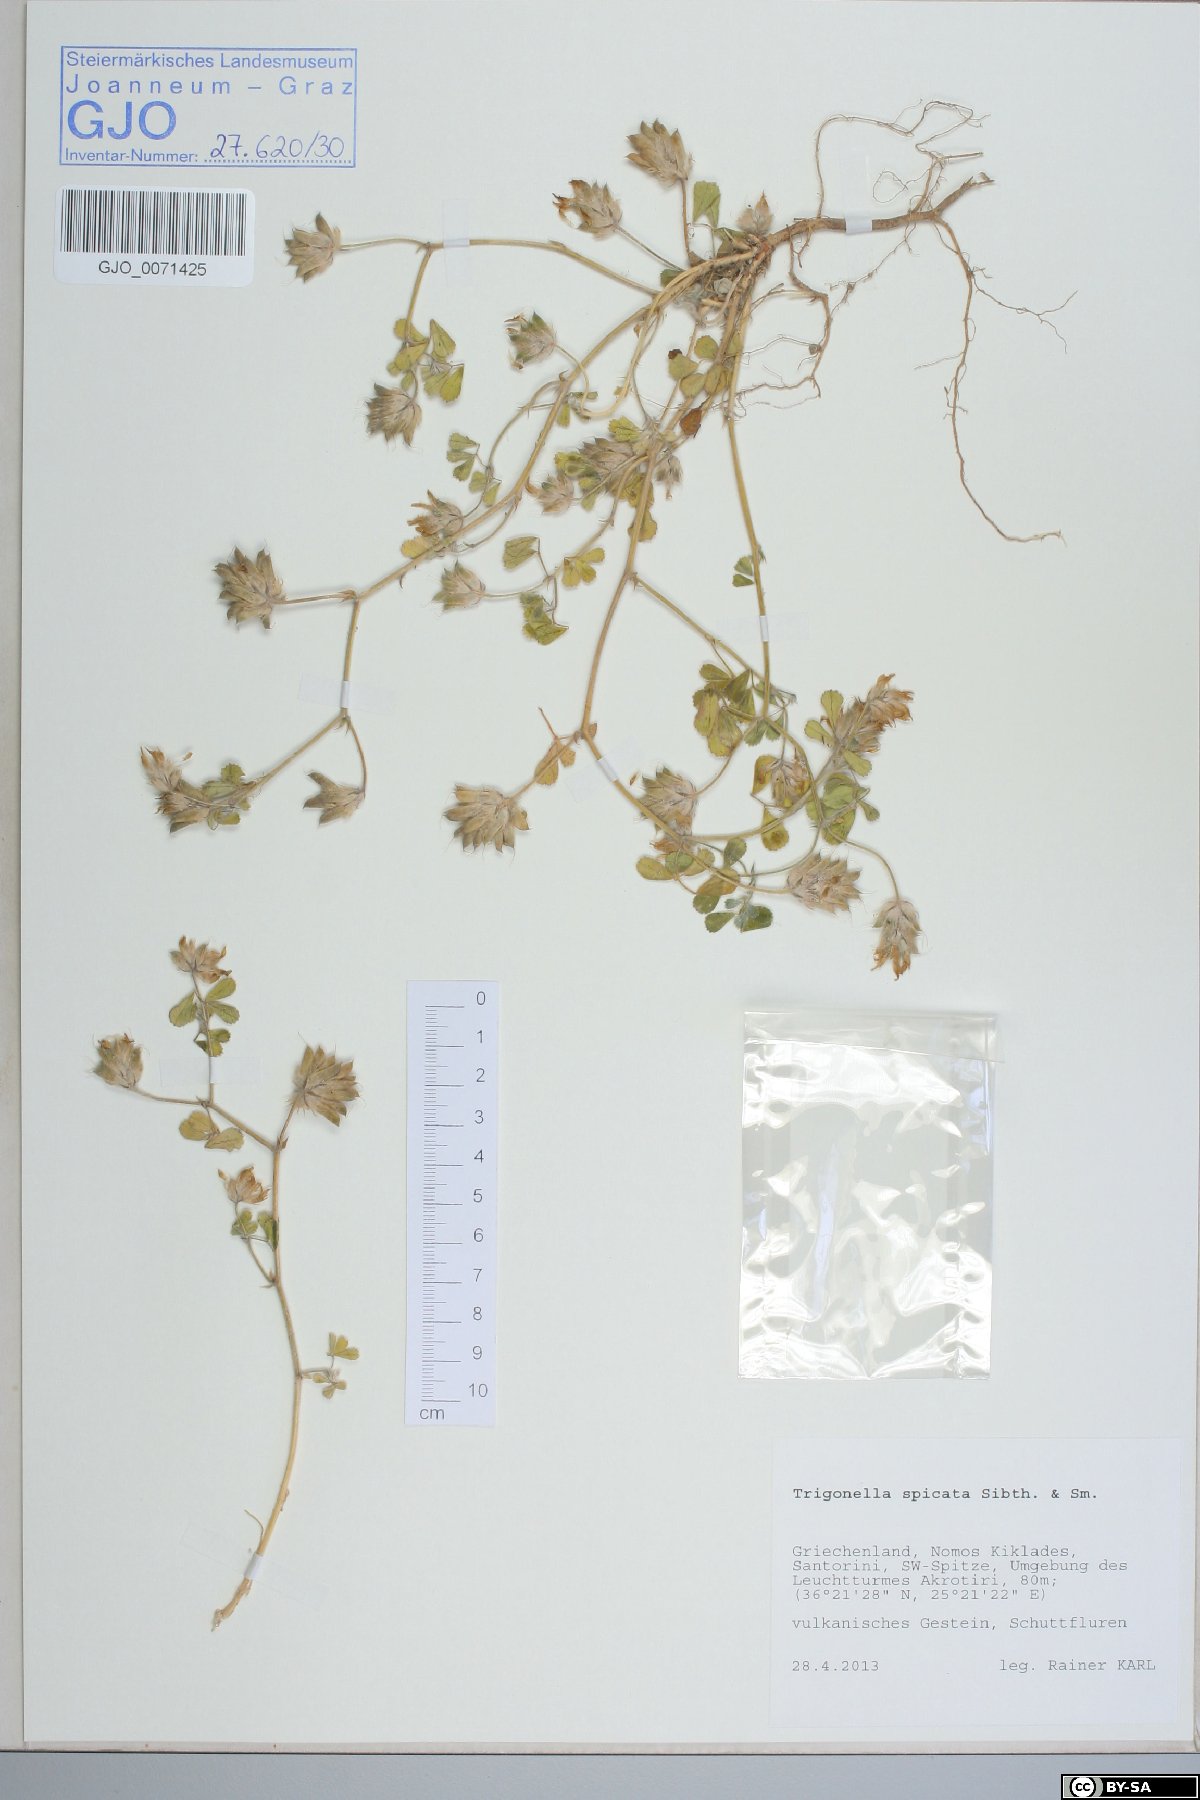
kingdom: Plantae
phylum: Tracheophyta
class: Magnoliopsida
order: Fabales
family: Fabaceae
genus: Trigonella
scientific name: Trigonella spicata
